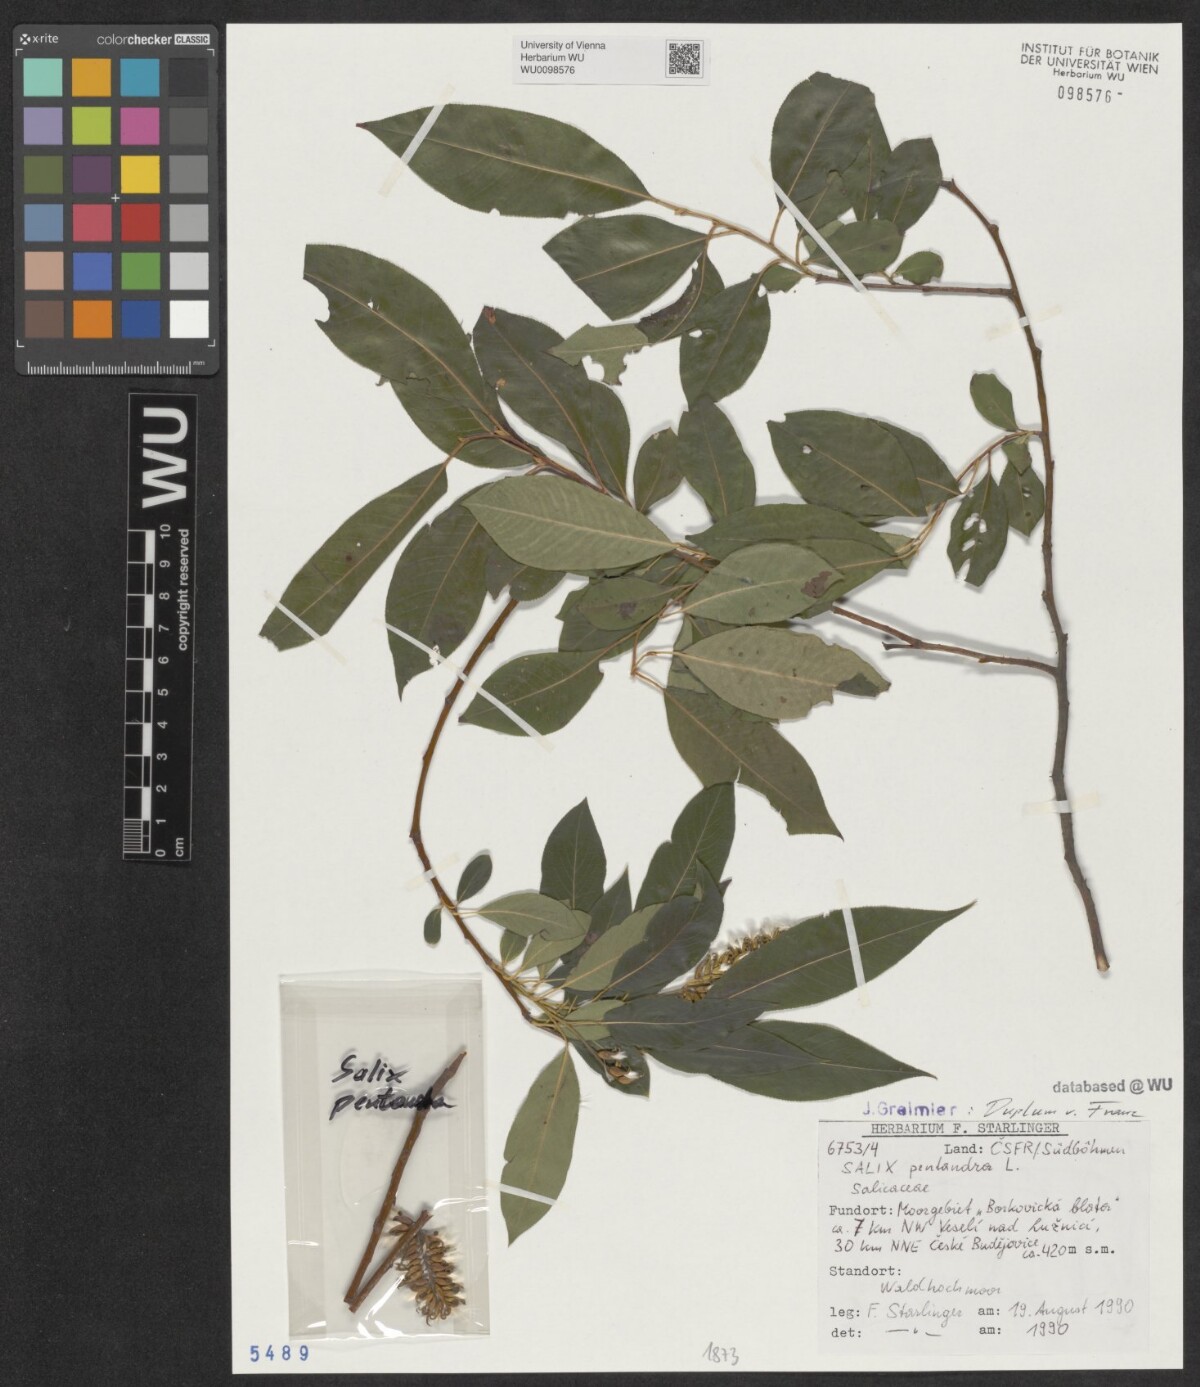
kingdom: Plantae
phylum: Tracheophyta
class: Magnoliopsida
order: Malpighiales
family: Salicaceae
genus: Salix
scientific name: Salix pentandra
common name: Bay willow
